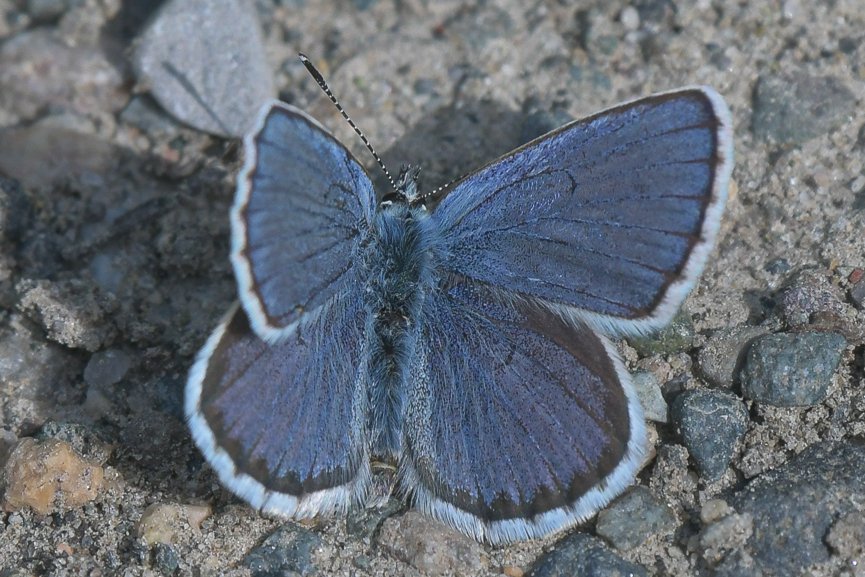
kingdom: Animalia
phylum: Arthropoda
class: Insecta
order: Lepidoptera
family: Lycaenidae
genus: Lycaeides
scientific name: Lycaeides idas
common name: Northern Blue
